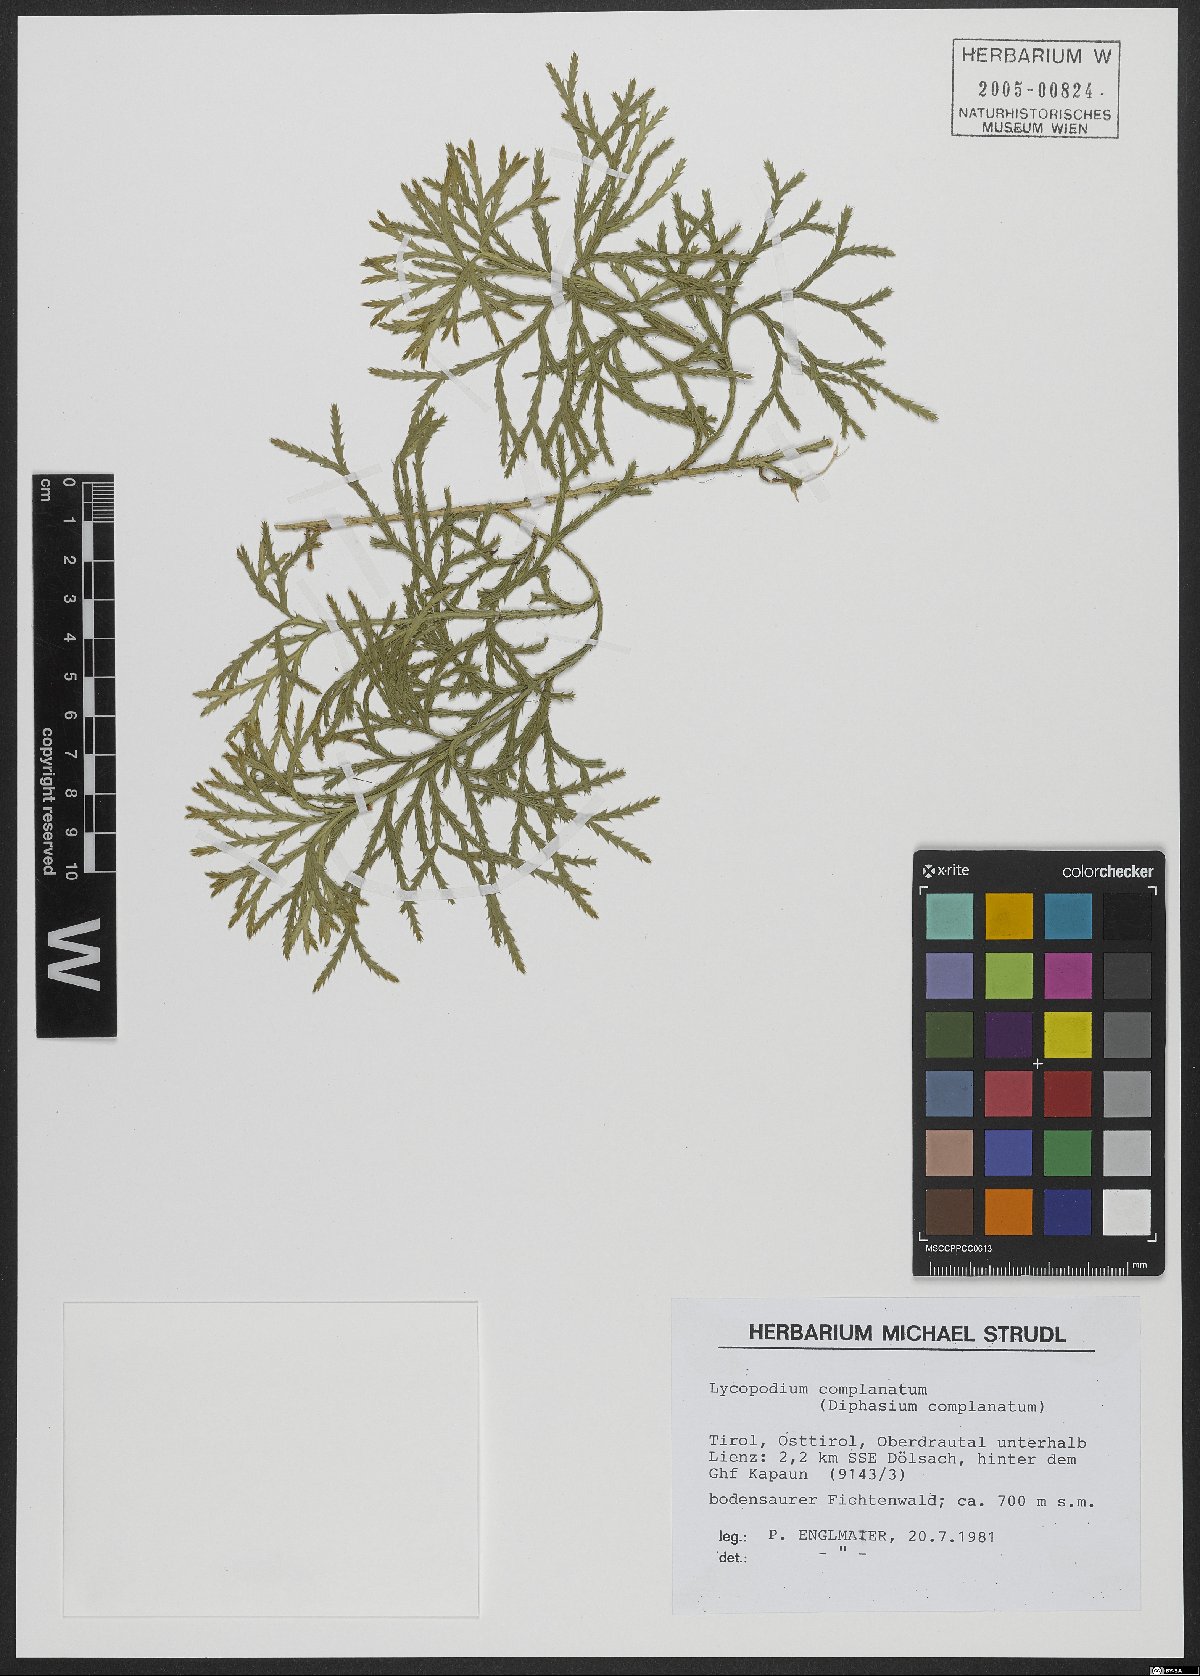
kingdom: Plantae
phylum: Tracheophyta
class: Lycopodiopsida
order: Lycopodiales
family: Lycopodiaceae
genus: Diphasiastrum
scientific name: Diphasiastrum complanatum
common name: Northern running-pine
